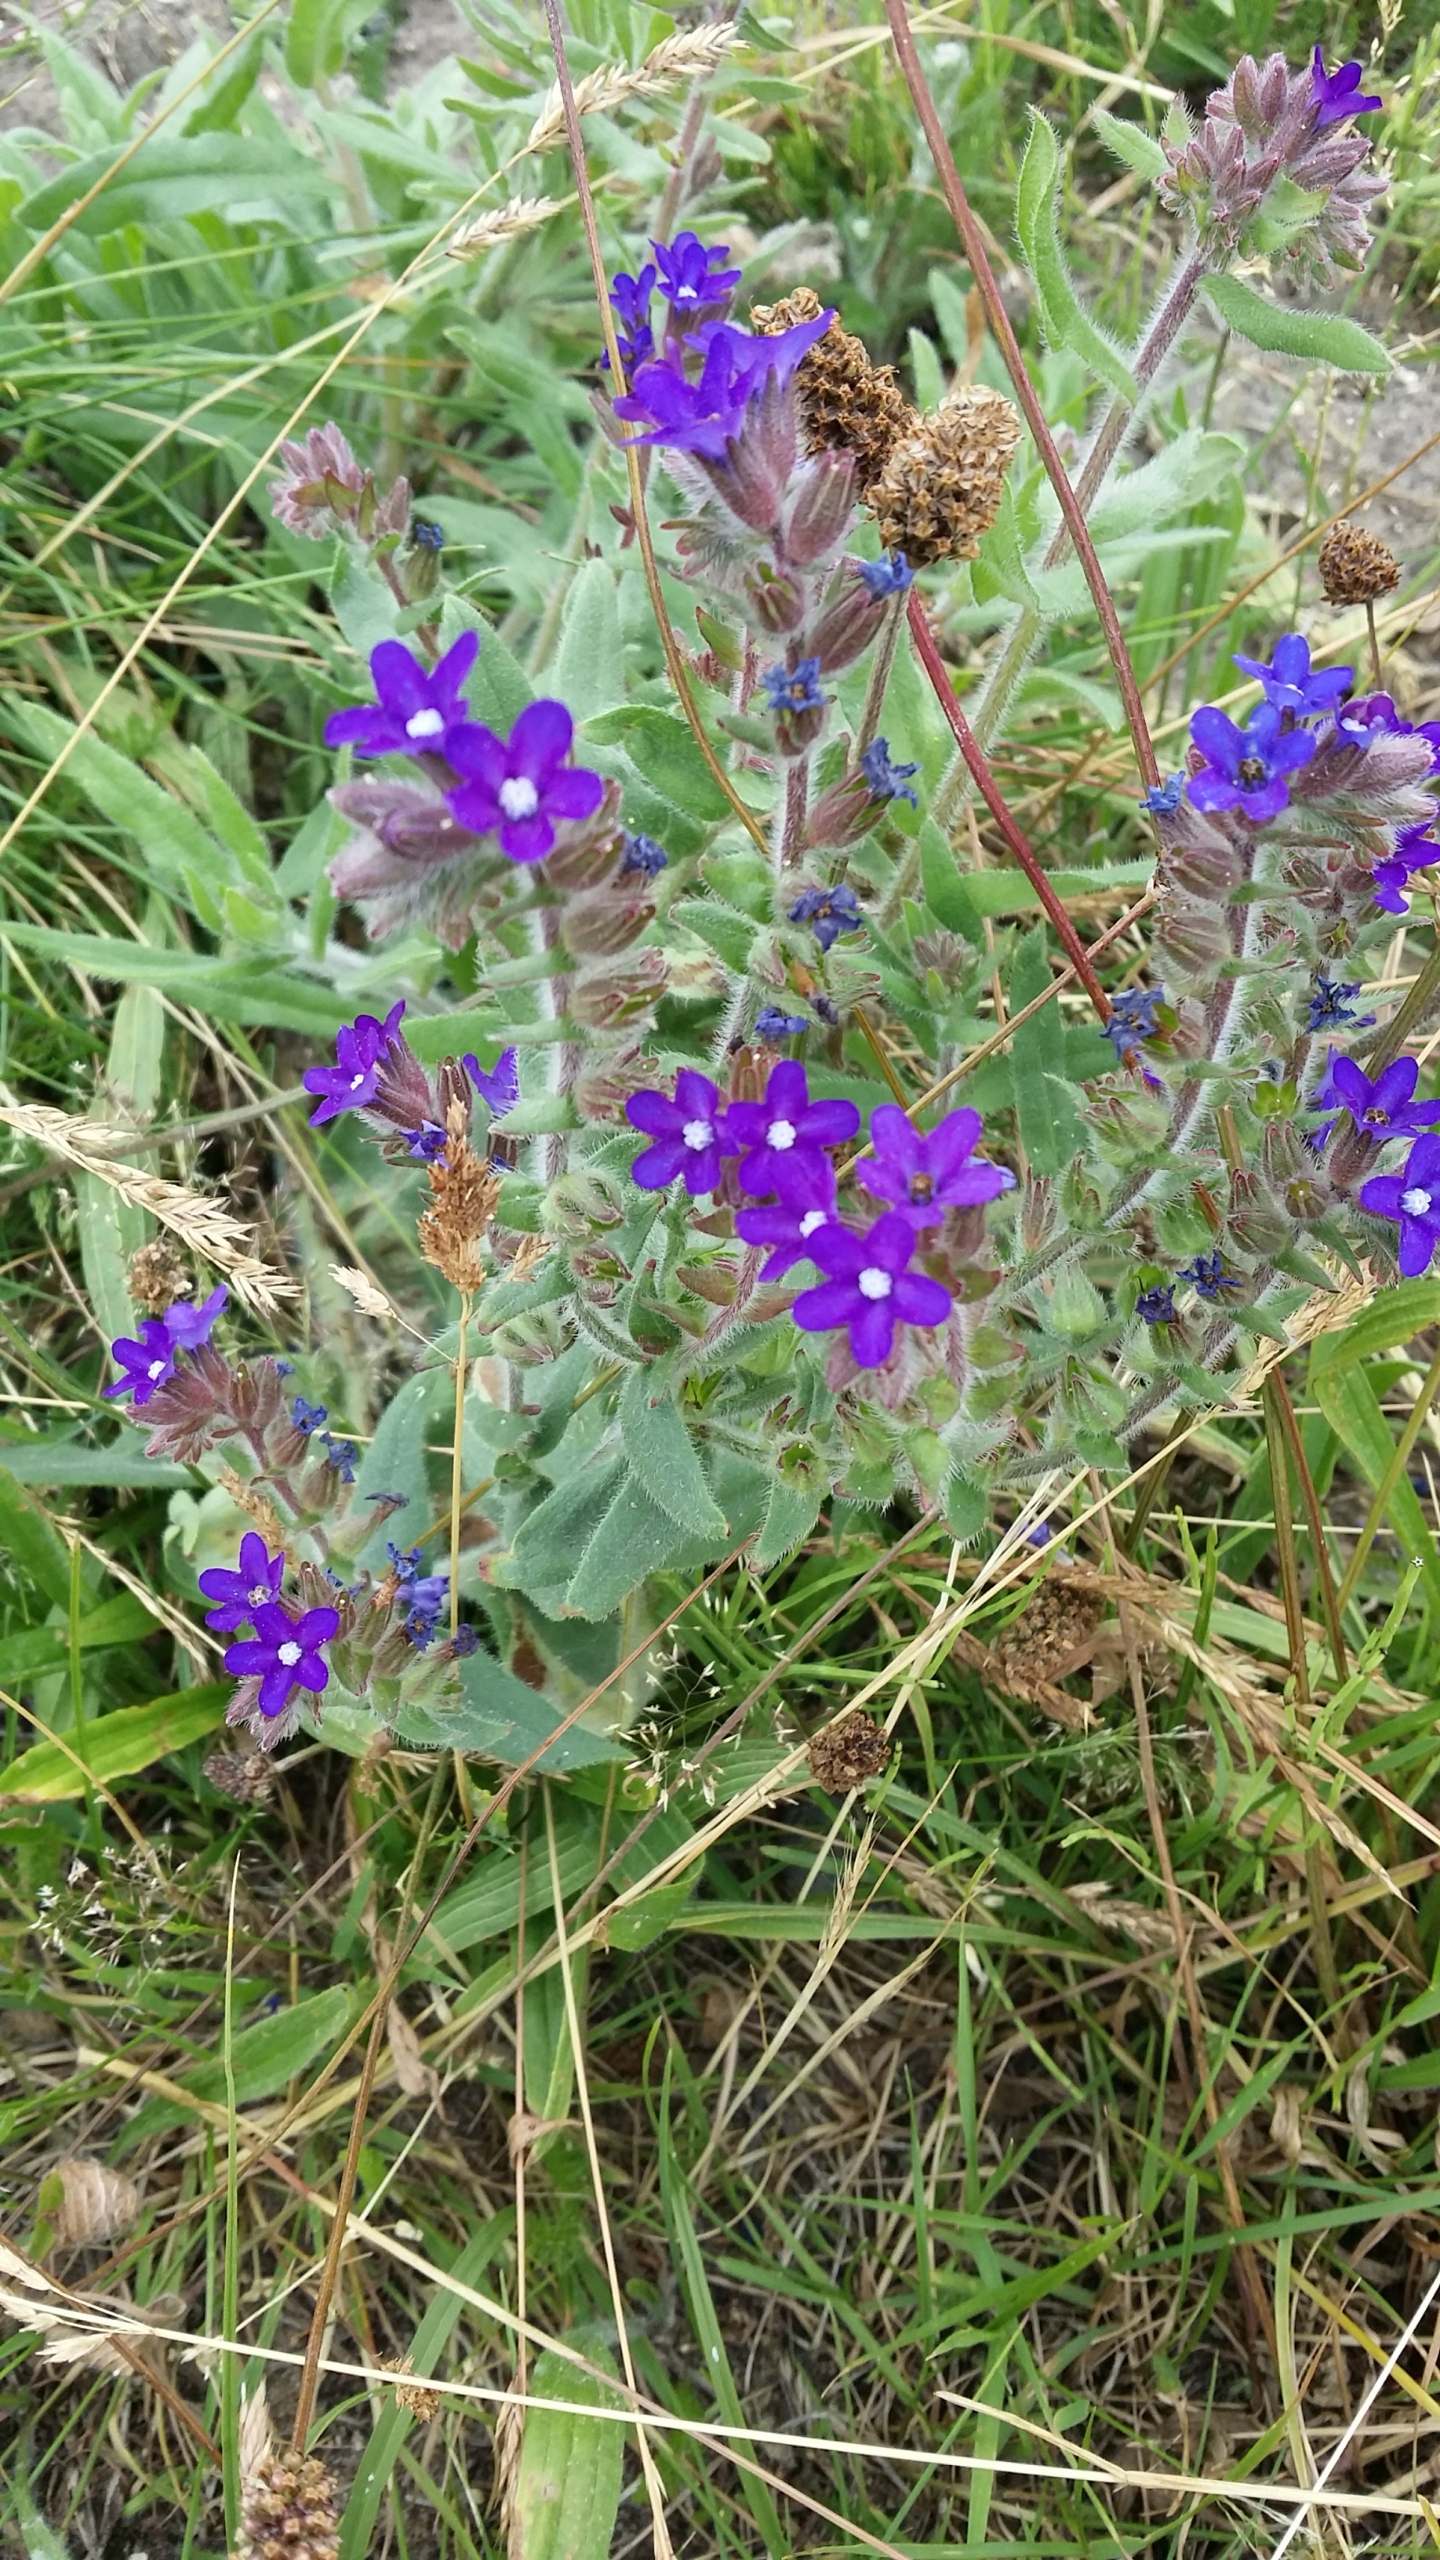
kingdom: Plantae
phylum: Tracheophyta
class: Magnoliopsida
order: Boraginales
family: Boraginaceae
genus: Anchusa
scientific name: Anchusa officinalis
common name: Læge-oksetunge
